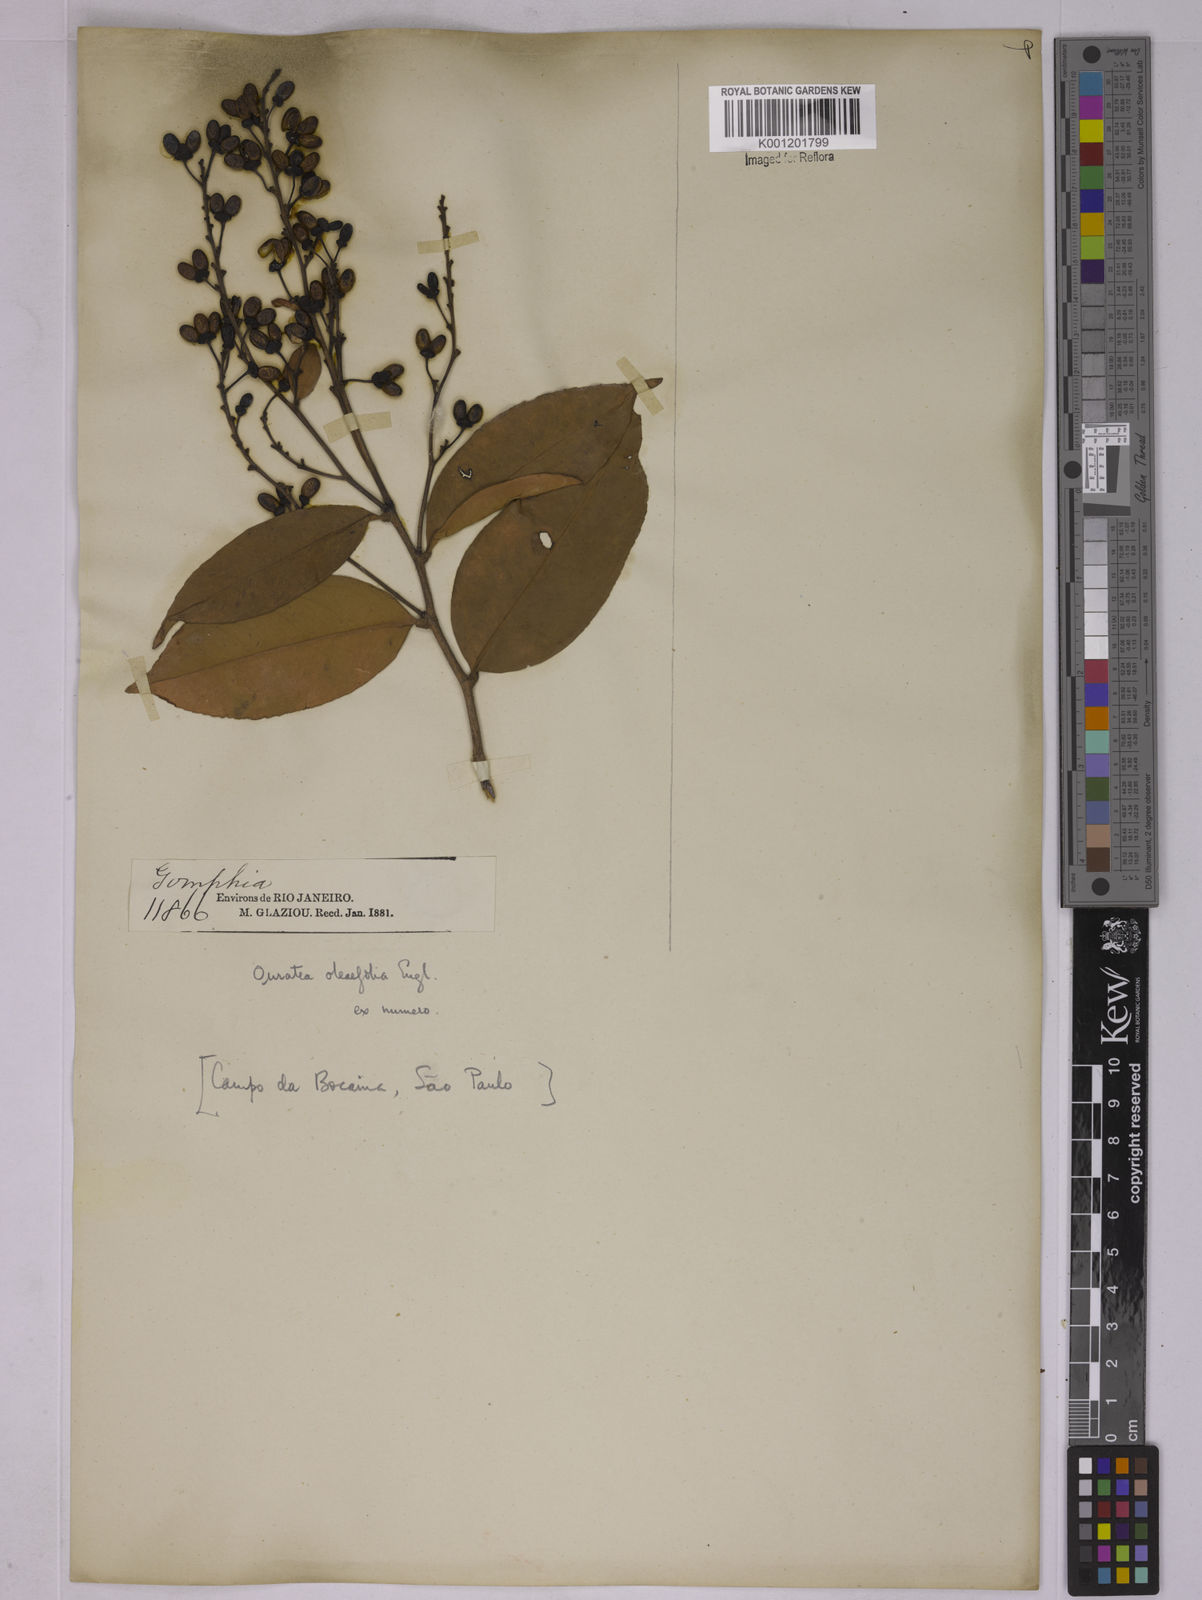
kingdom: Plantae
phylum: Tracheophyta
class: Magnoliopsida
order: Malpighiales
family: Ochnaceae
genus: Ouratea
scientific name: Ouratea oleifolia
